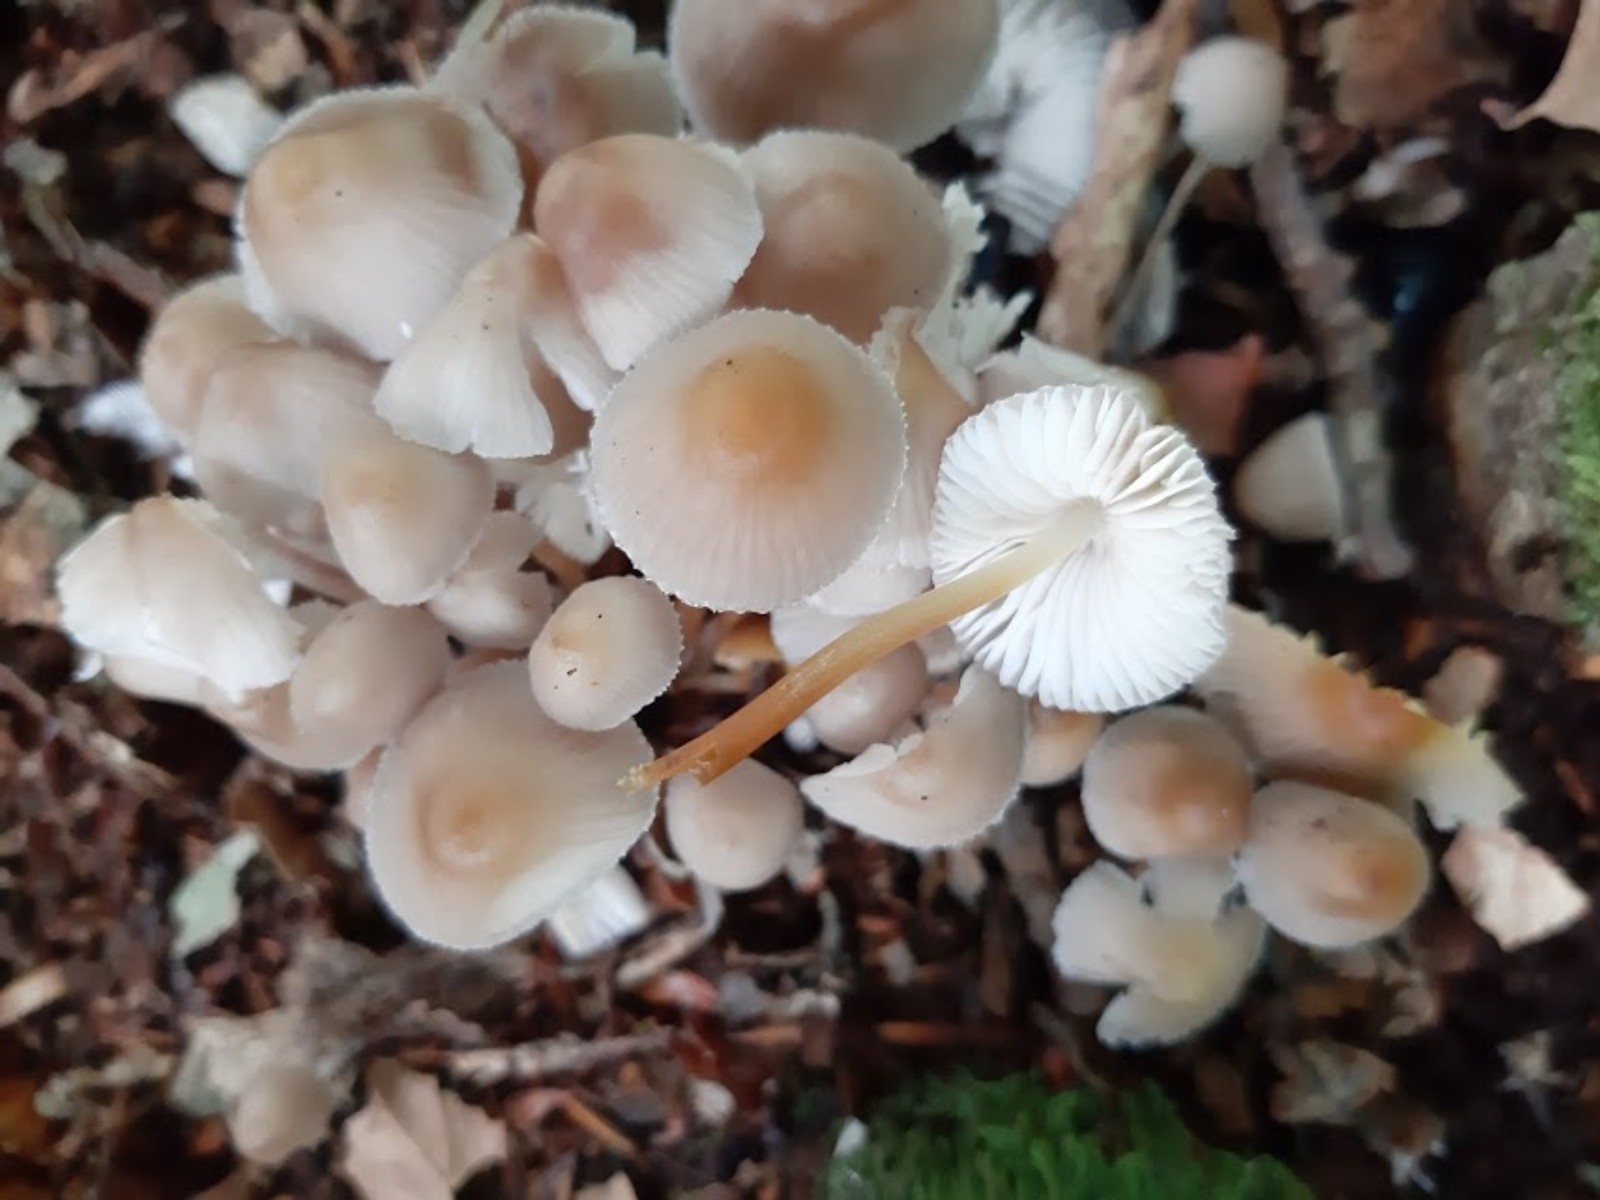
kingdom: Fungi
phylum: Basidiomycota
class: Agaricomycetes
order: Agaricales
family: Mycenaceae
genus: Mycena
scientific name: Mycena inclinata
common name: nikkende huesvamp
